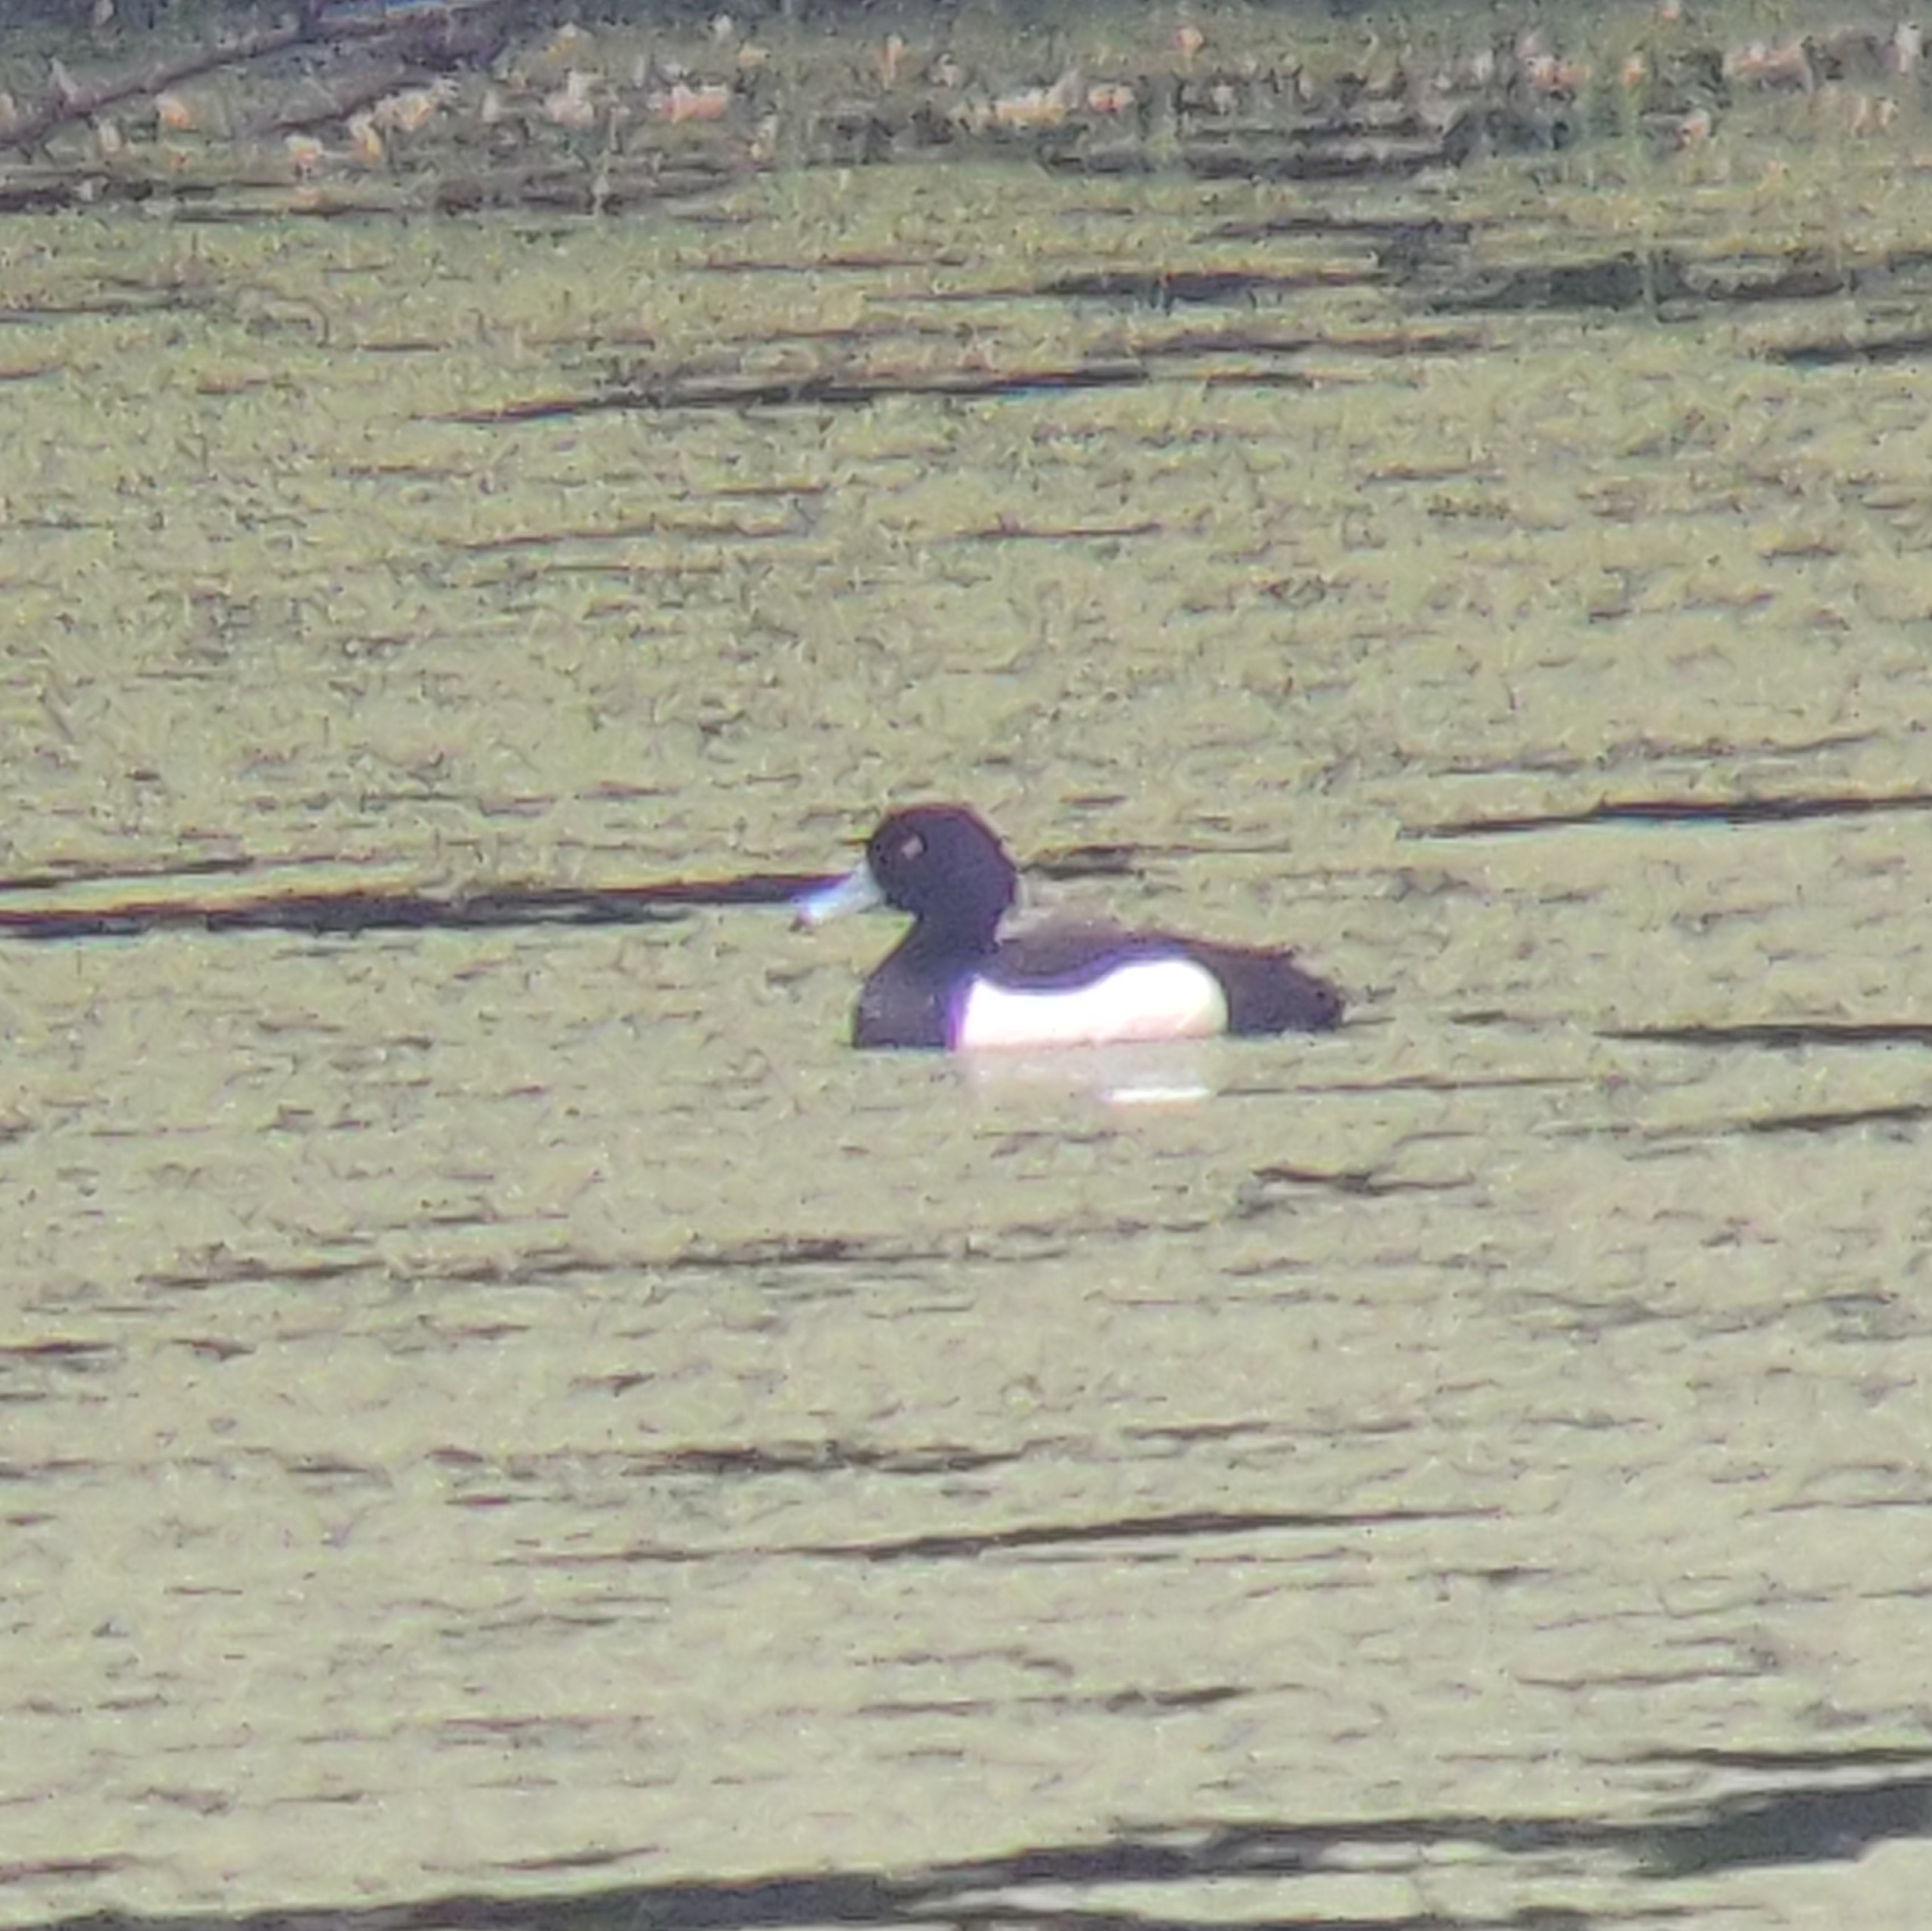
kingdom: Animalia
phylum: Chordata
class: Aves
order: Anseriformes
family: Anatidae
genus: Aythya
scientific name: Aythya fuligula
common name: Troldand
